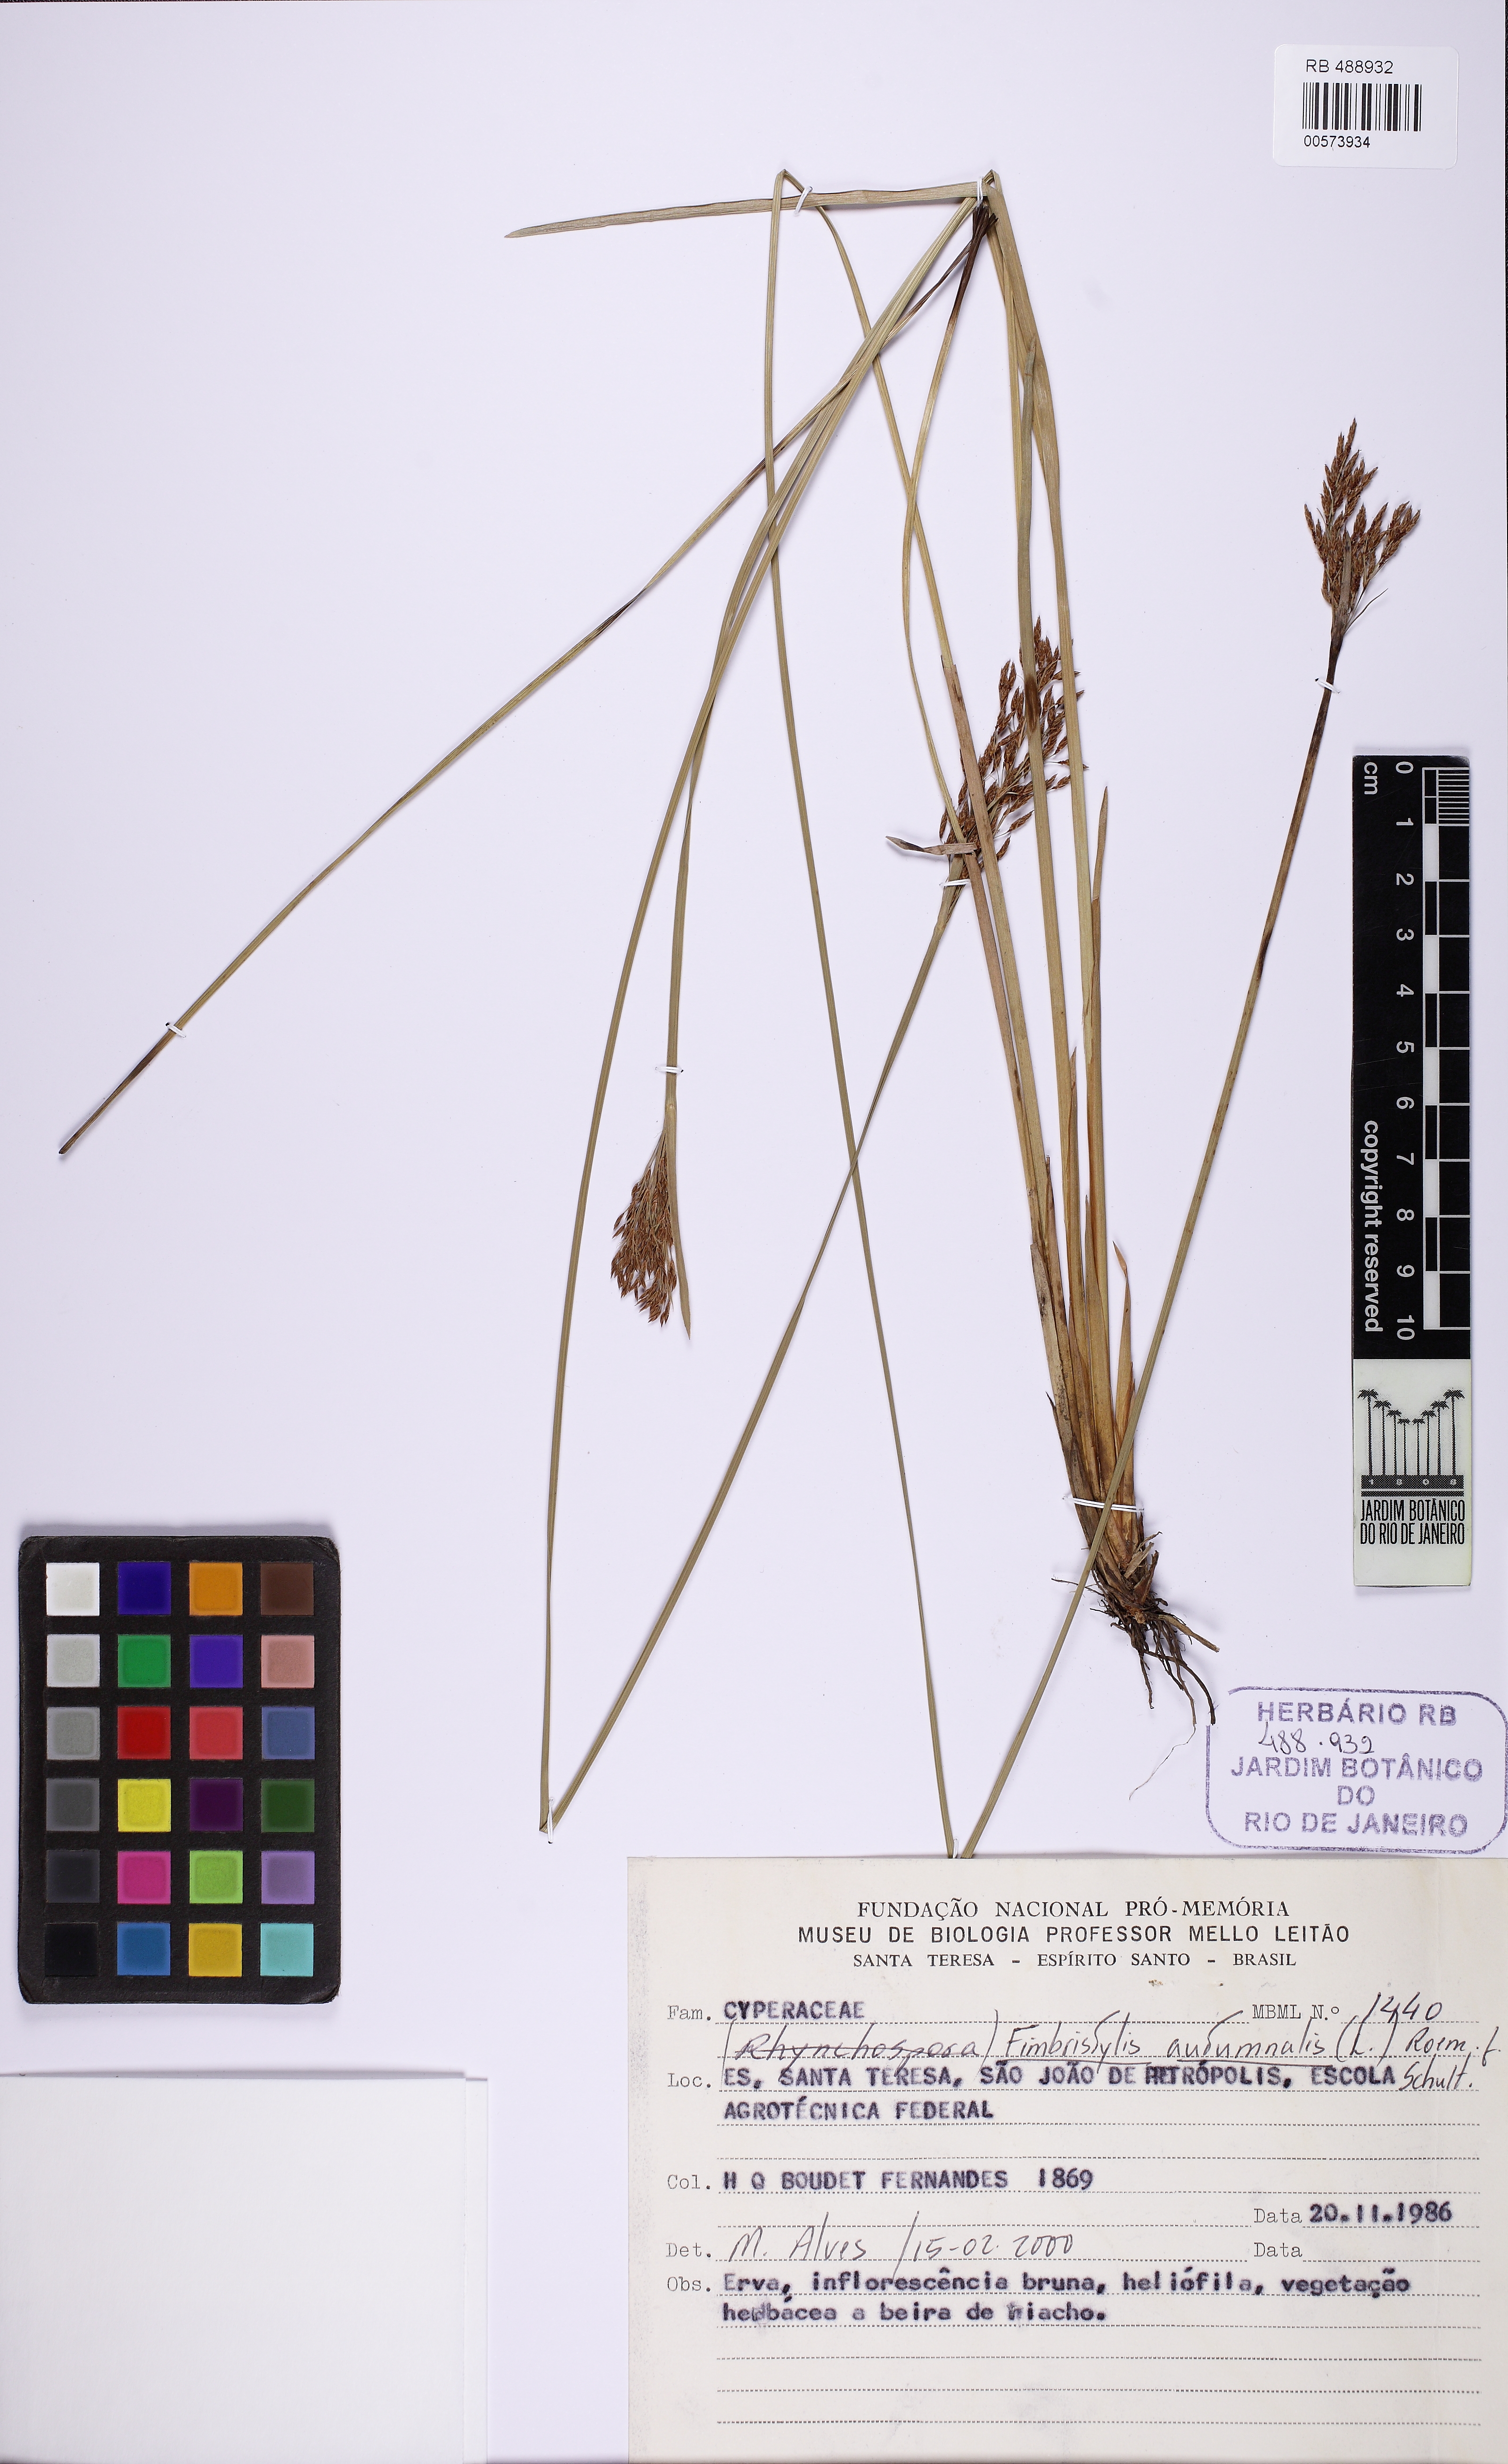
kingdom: Plantae
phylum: Tracheophyta
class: Liliopsida
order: Poales
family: Cyperaceae
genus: Fimbristylis
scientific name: Fimbristylis autumnalis
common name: Slender fimbristylis
